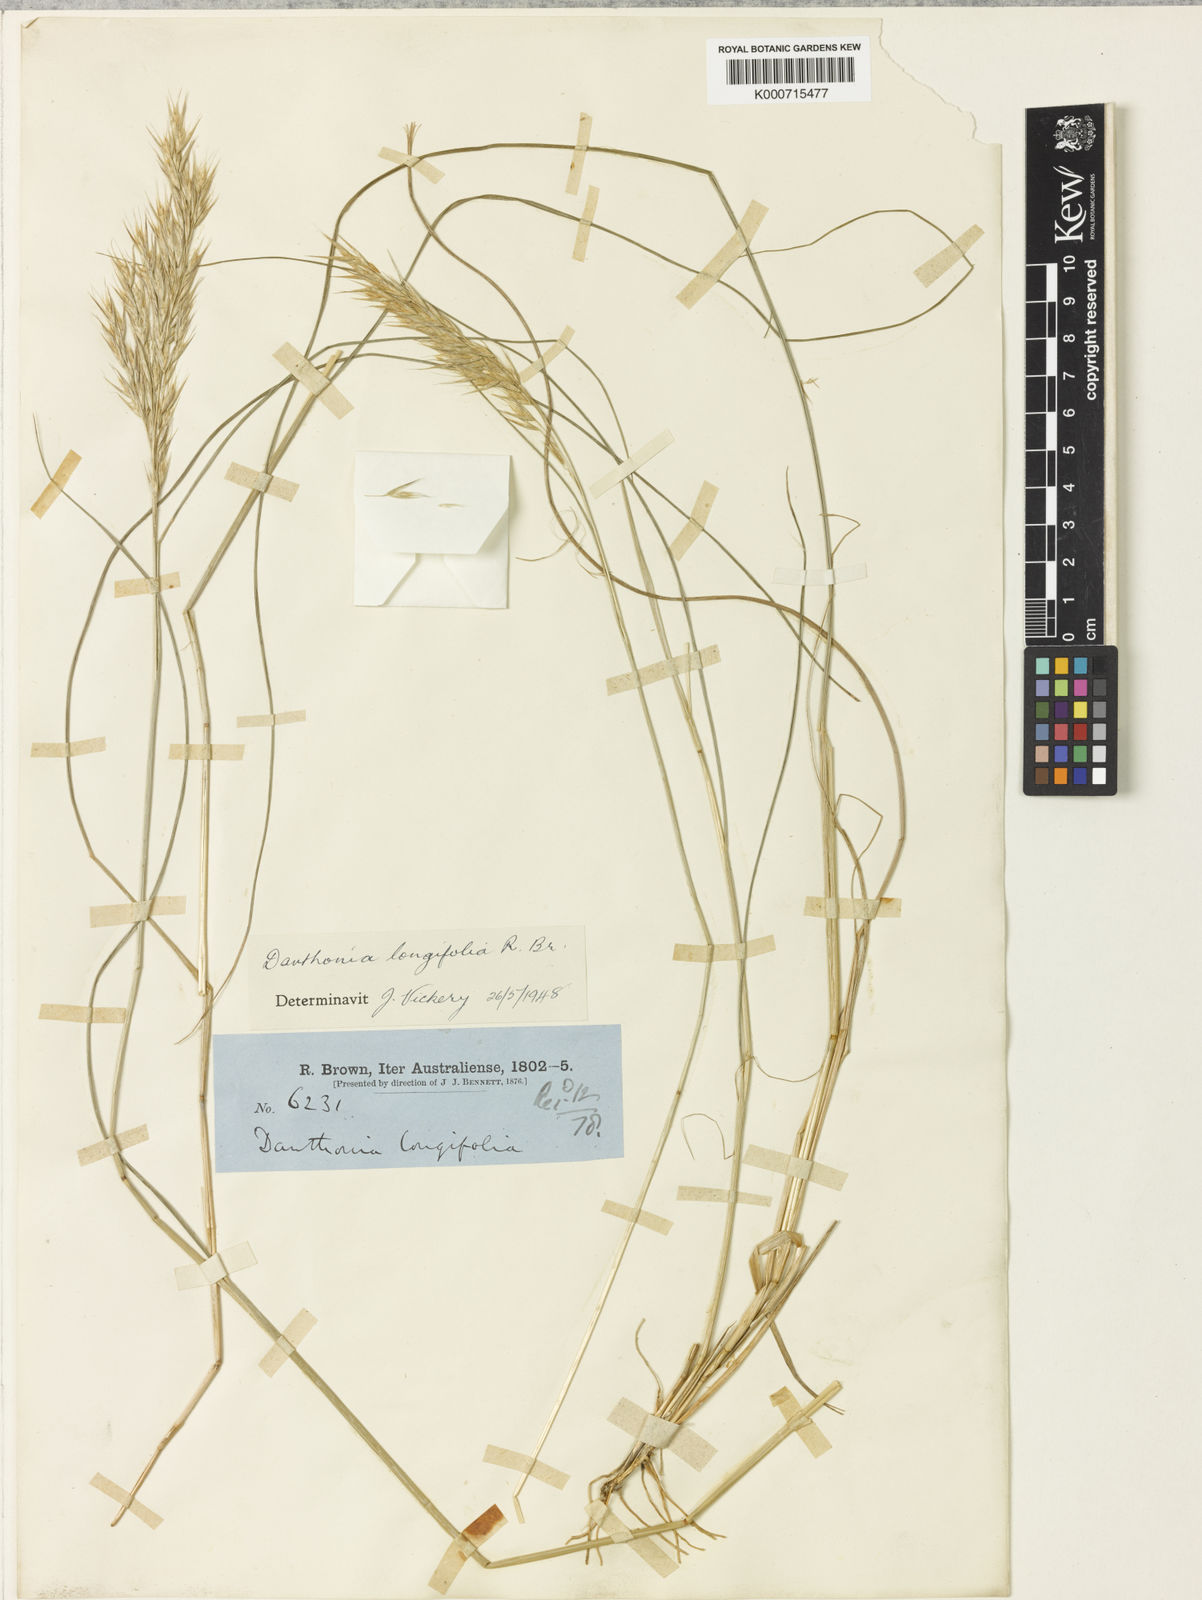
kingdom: Plantae
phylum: Tracheophyta
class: Liliopsida
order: Poales
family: Poaceae
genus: Rytidosperma
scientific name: Rytidosperma longifolium
